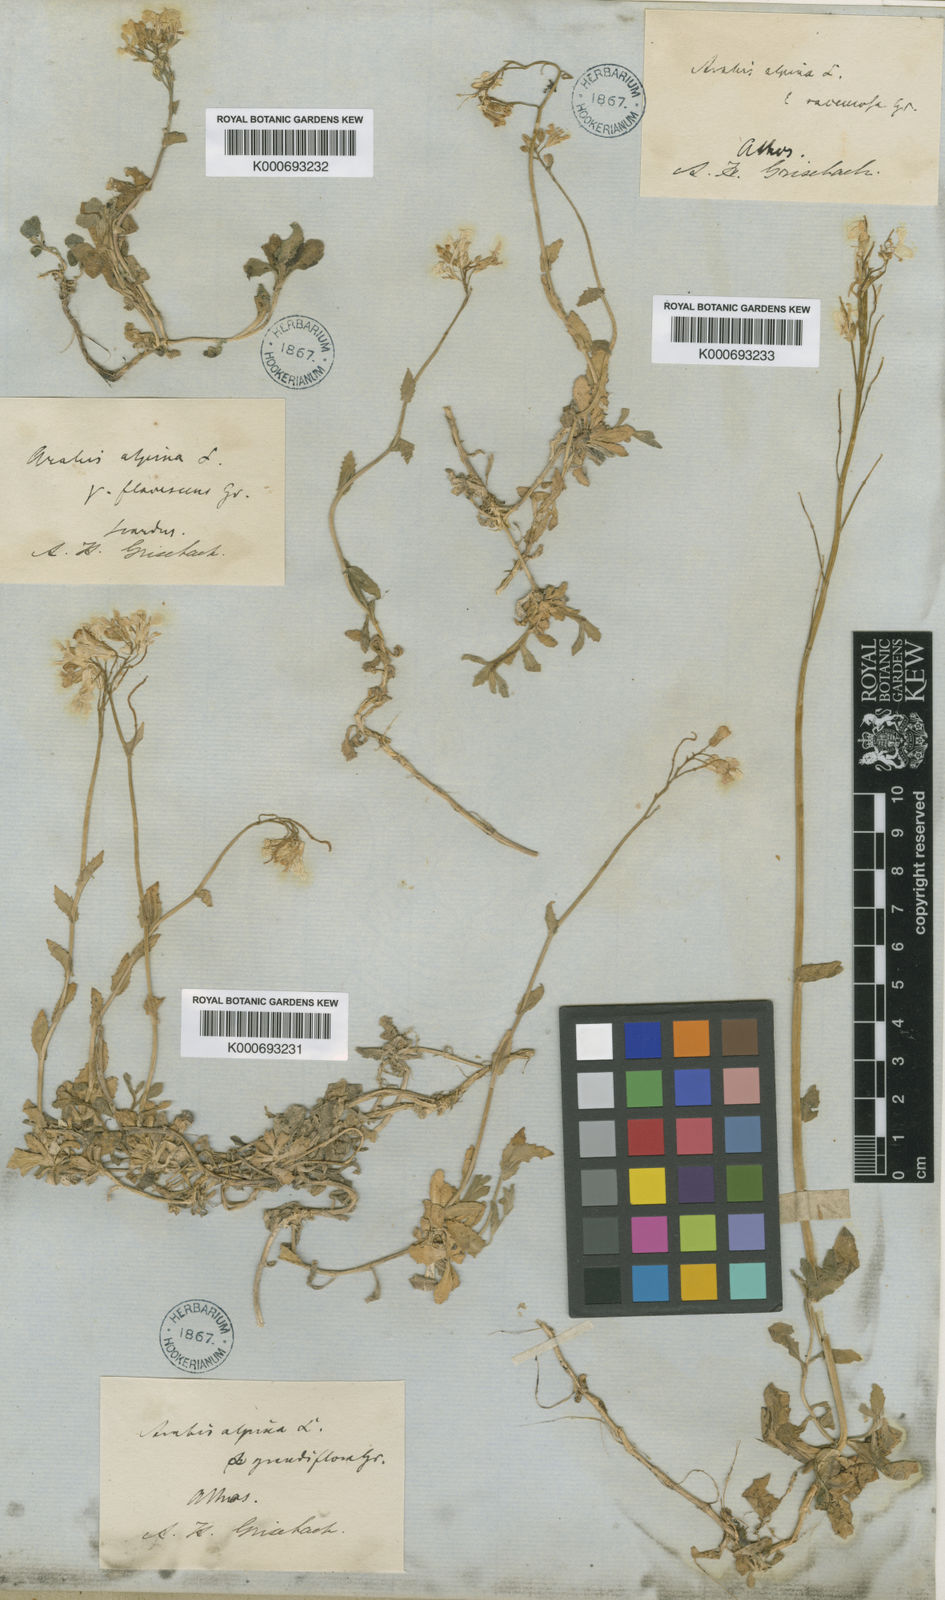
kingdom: Plantae
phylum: Tracheophyta
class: Magnoliopsida
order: Brassicales
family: Brassicaceae
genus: Arabis
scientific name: Arabis alpina
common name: Alpine rock-cress
